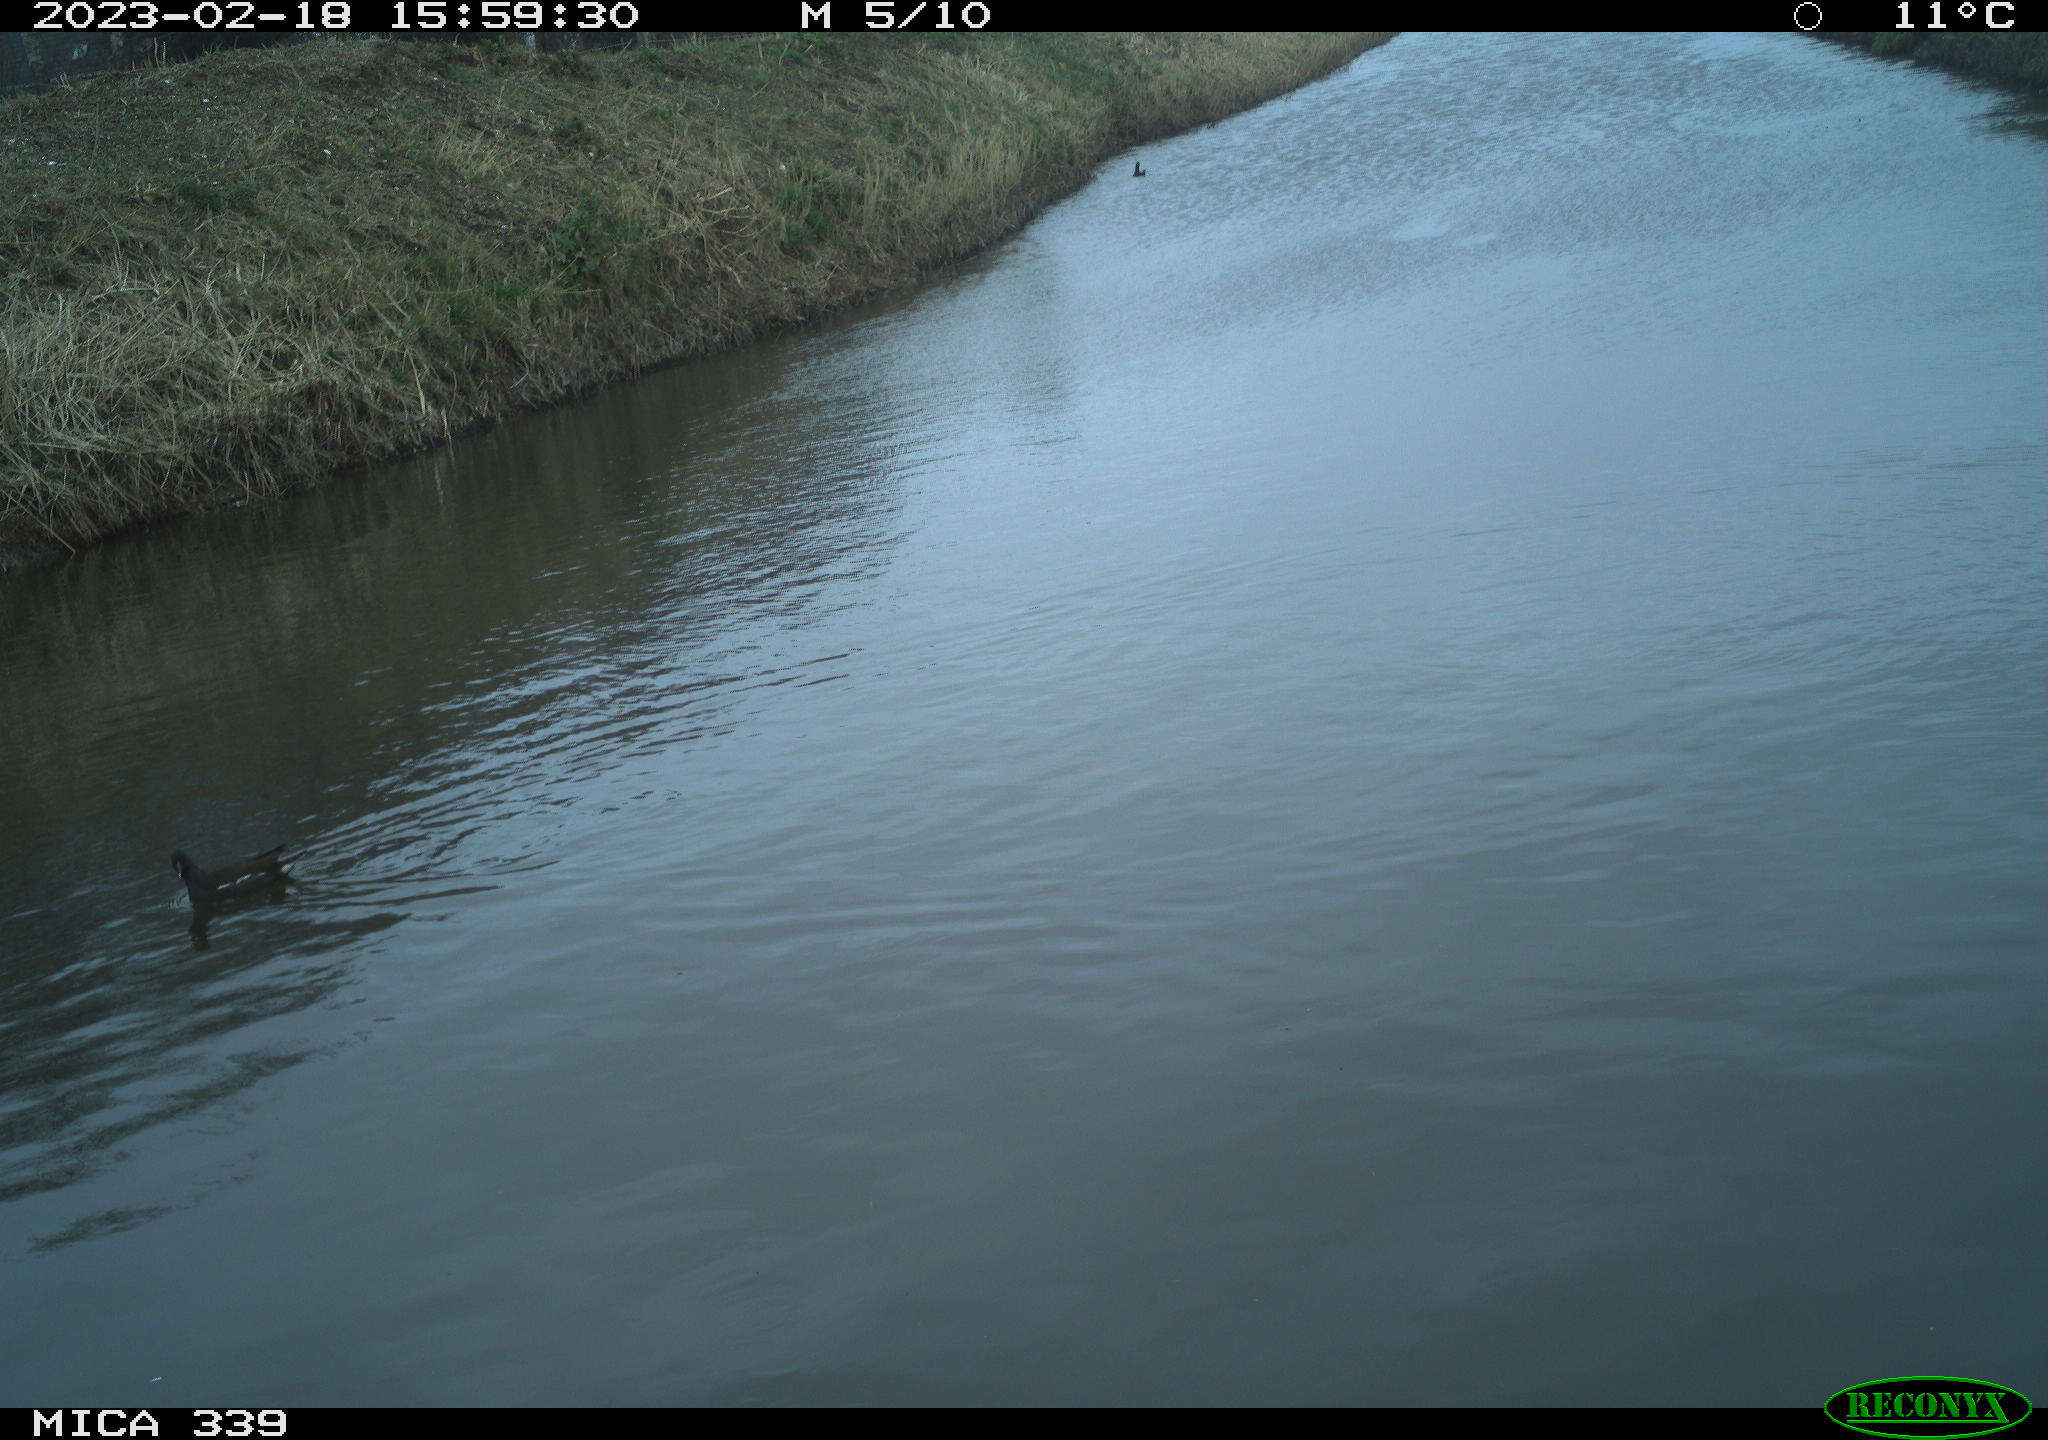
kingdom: Animalia
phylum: Chordata
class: Aves
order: Gruiformes
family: Rallidae
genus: Fulica
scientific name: Fulica atra
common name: Eurasian coot
